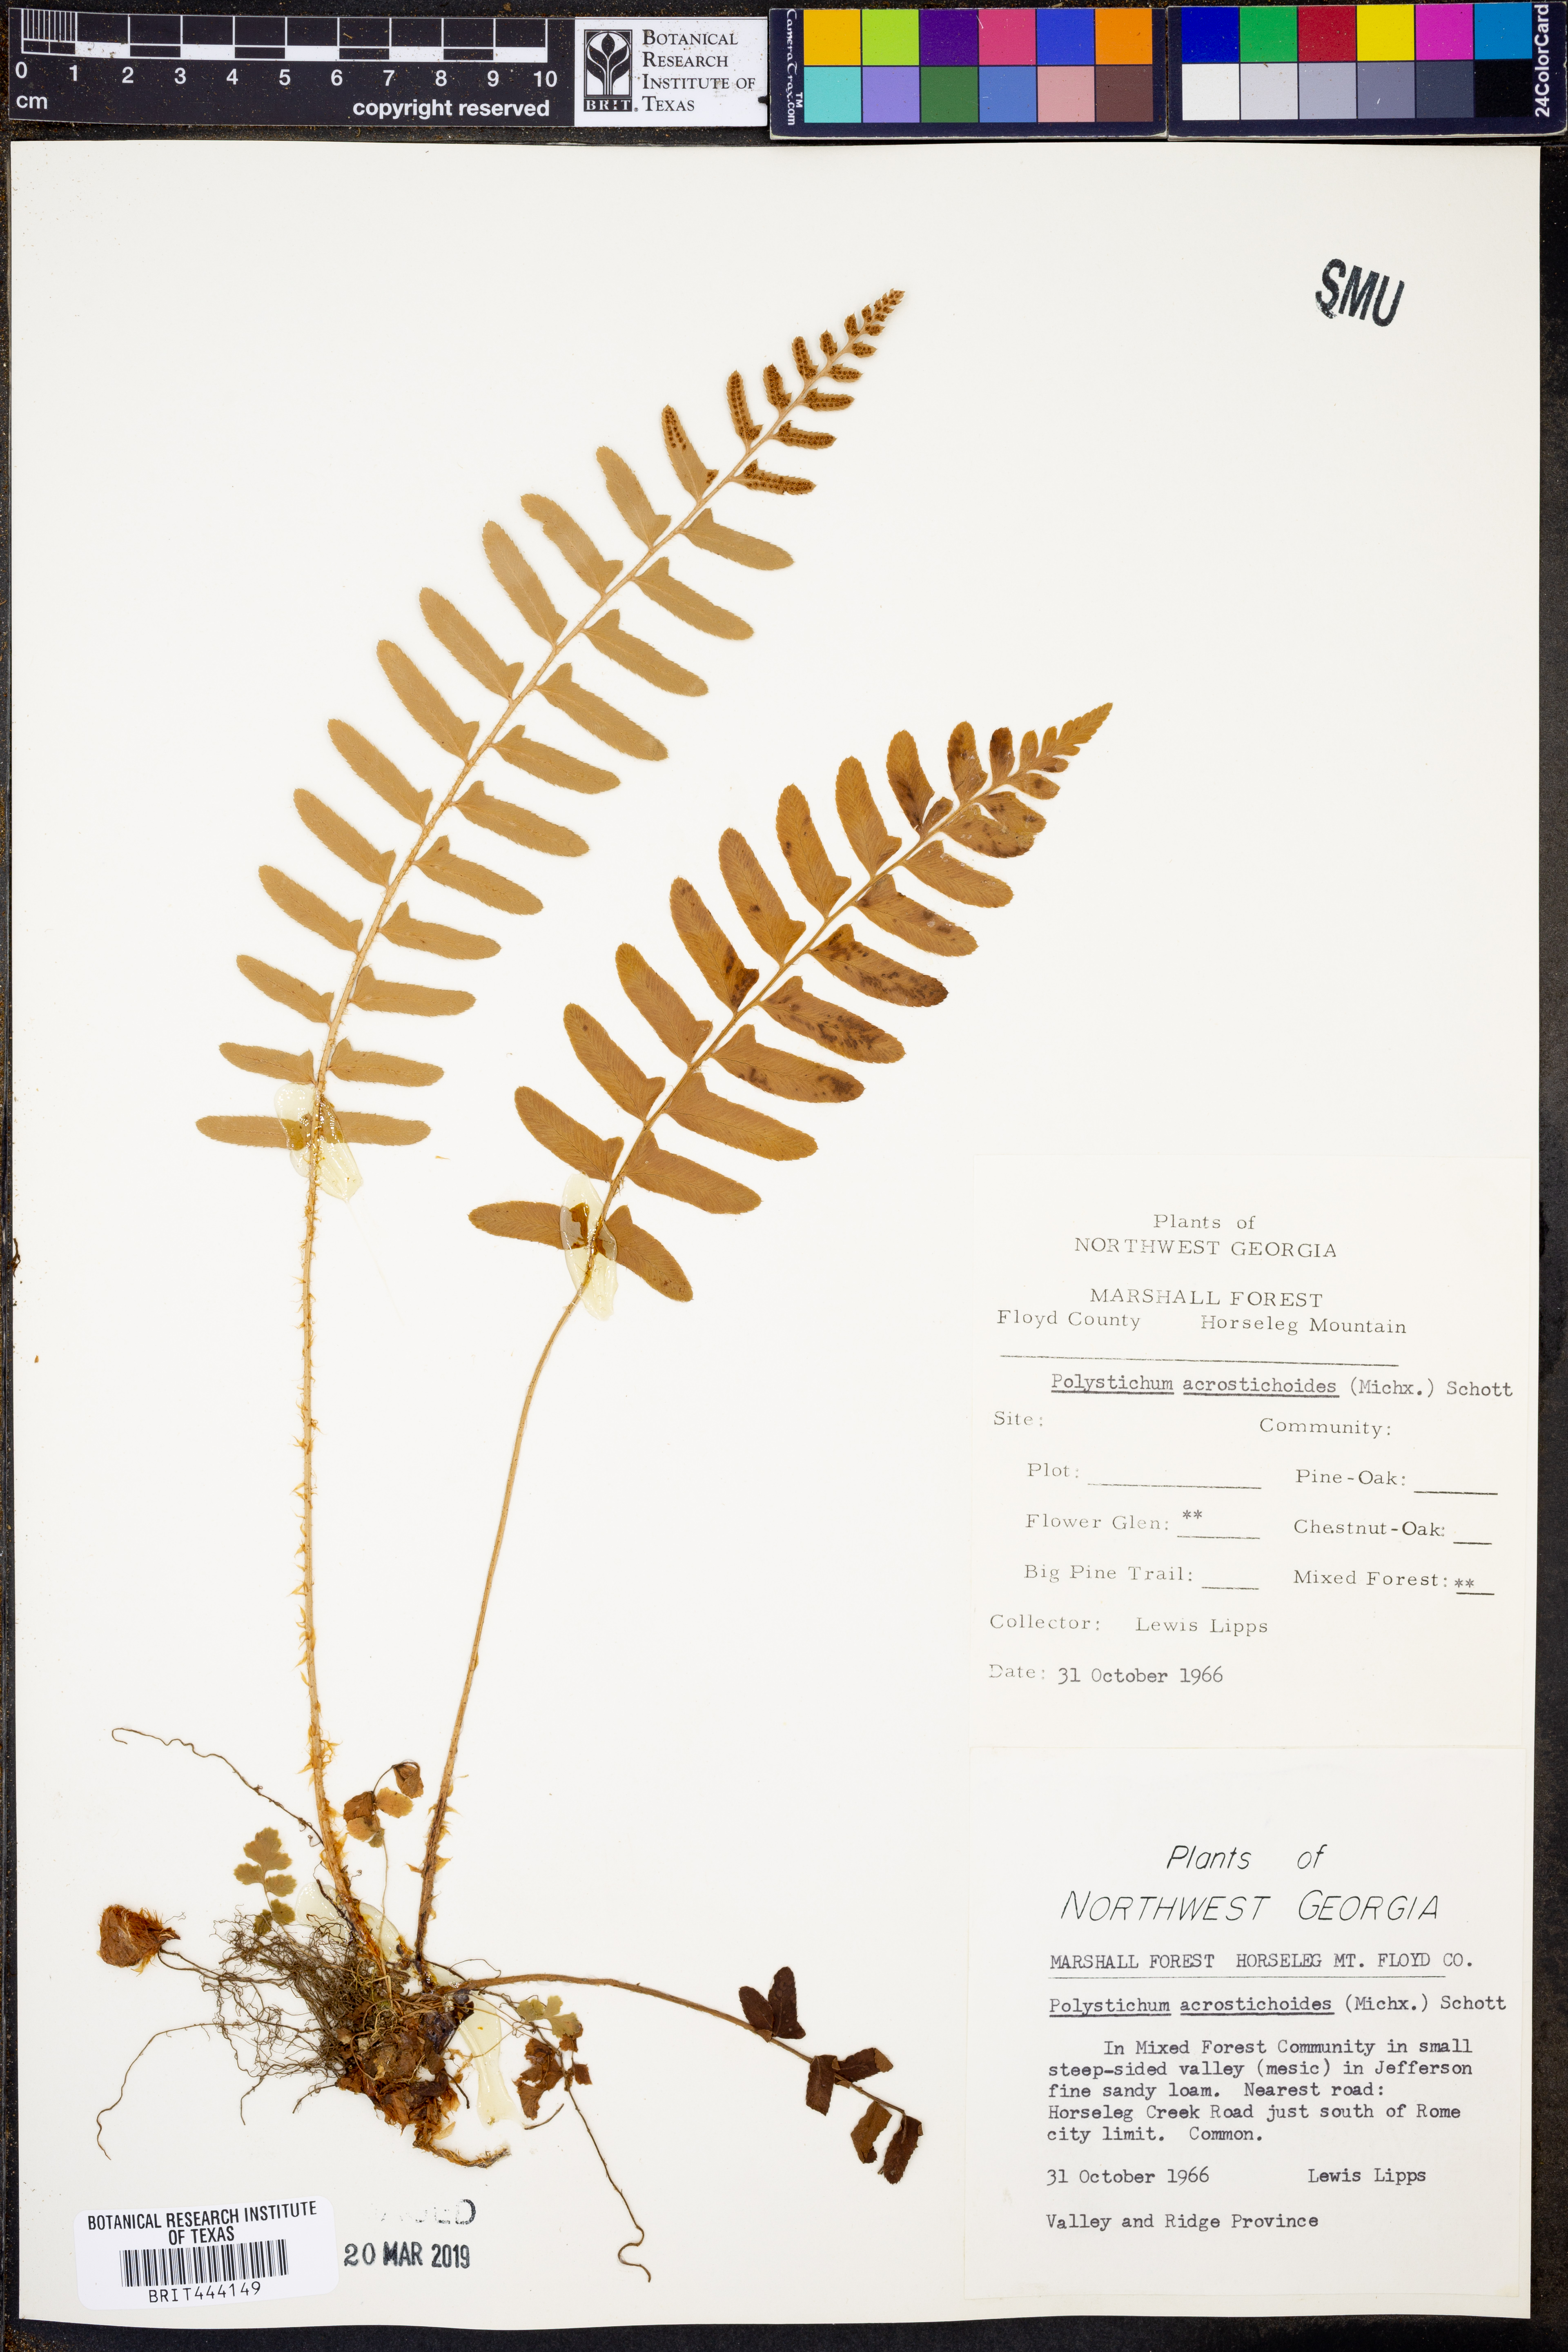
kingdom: Plantae
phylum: Tracheophyta
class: Polypodiopsida
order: Polypodiales
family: Dryopteridaceae
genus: Polystichum
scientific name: Polystichum acrostichoides
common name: Christmas fern
